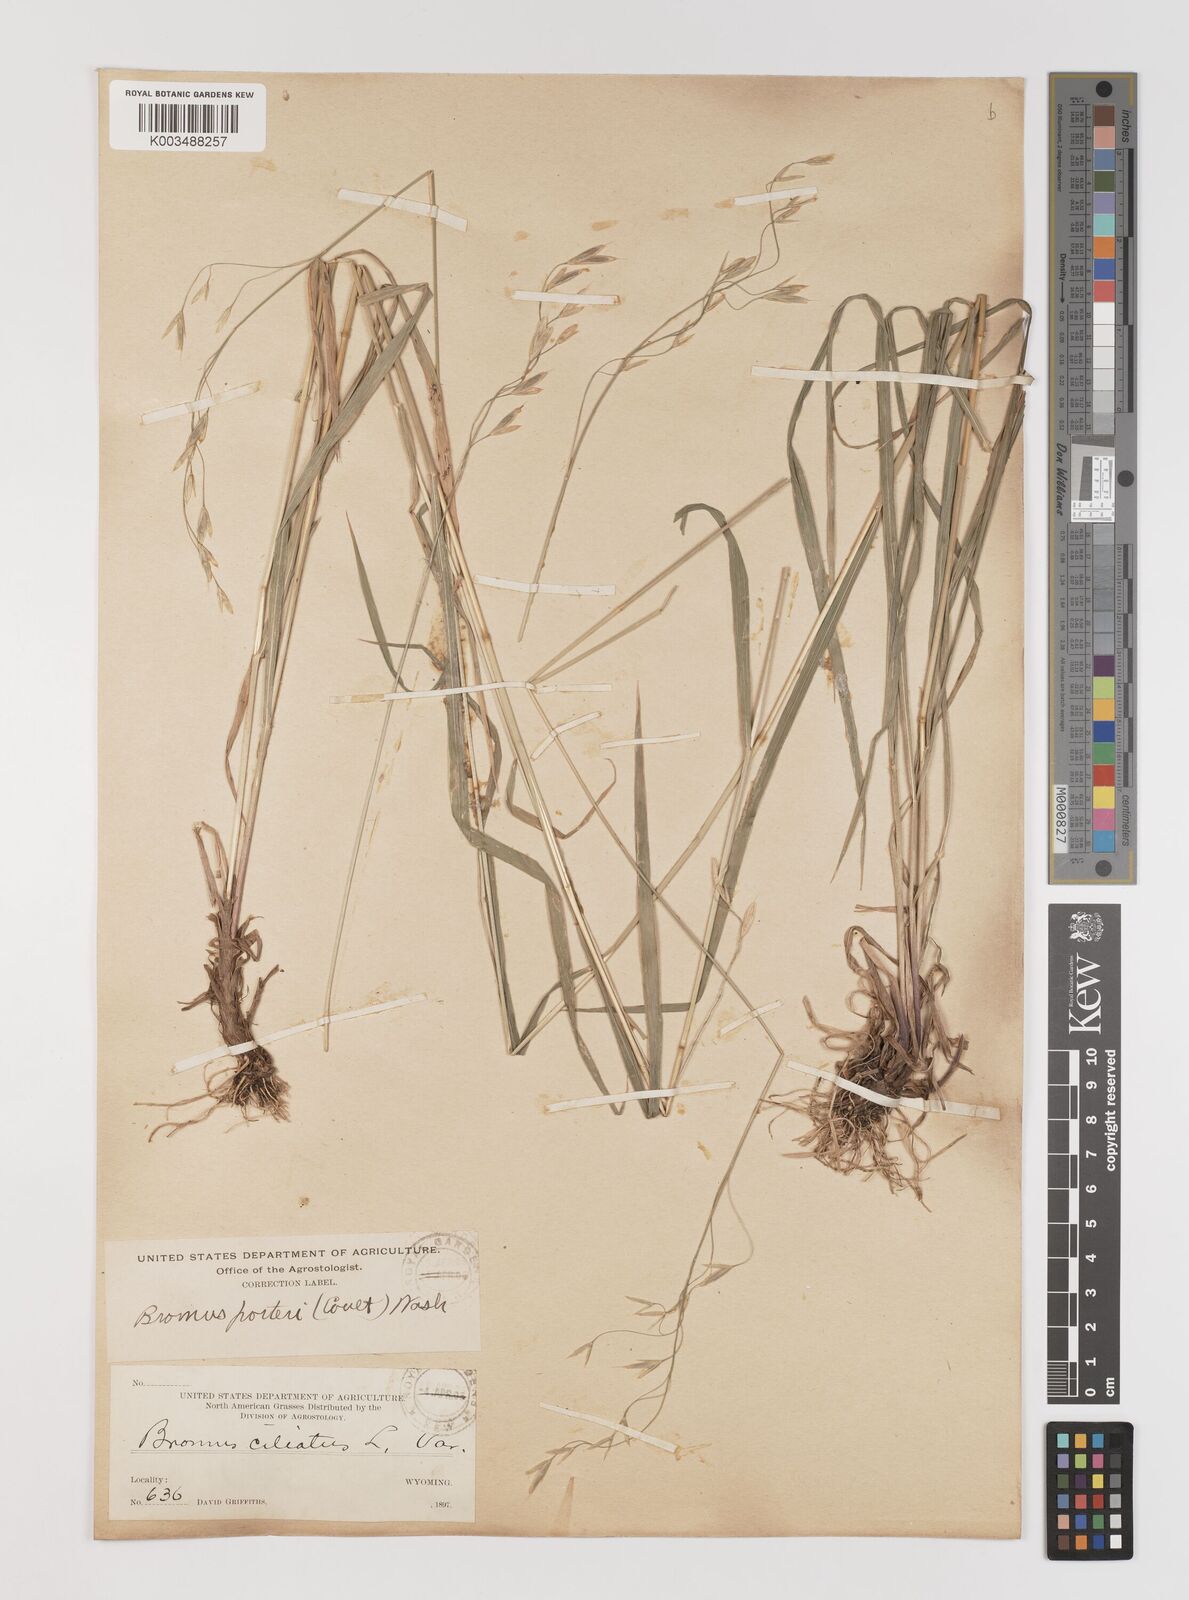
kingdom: Plantae
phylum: Tracheophyta
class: Liliopsida
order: Poales
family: Poaceae
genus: Bromus
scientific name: Bromus porteri
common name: Nodding brome
